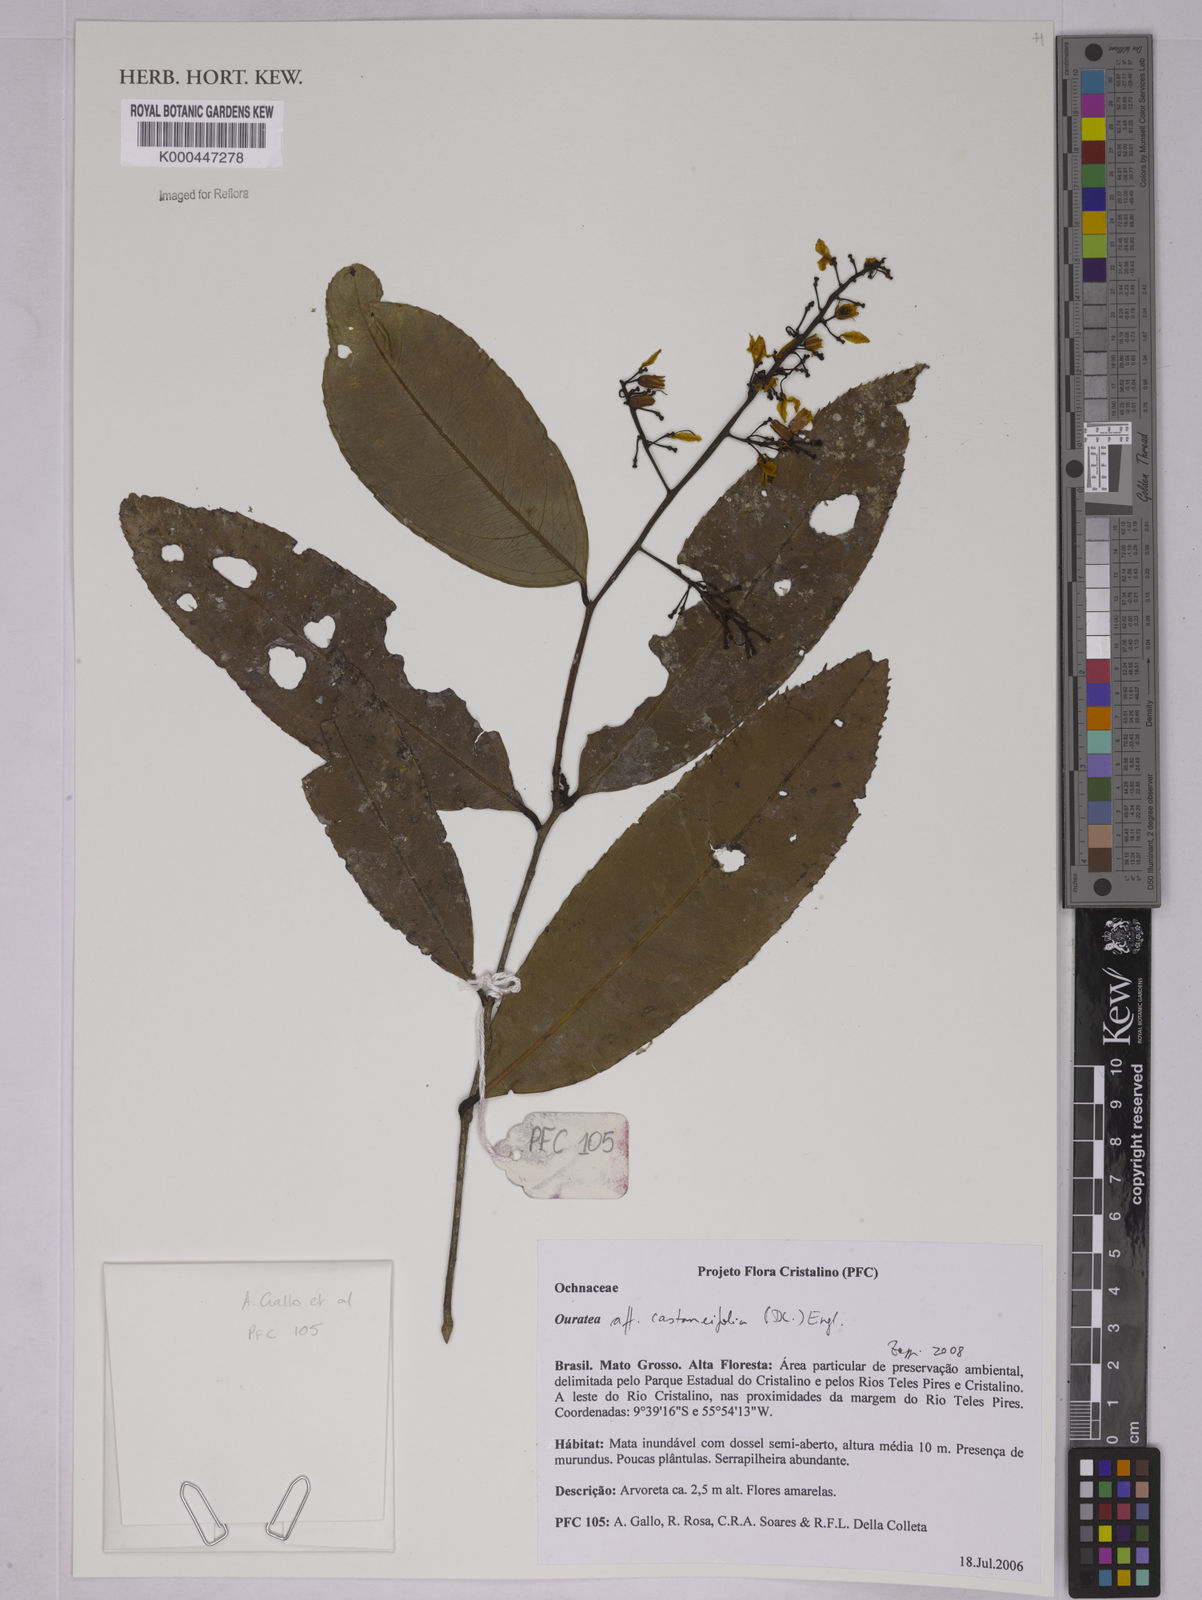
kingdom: Plantae
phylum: Tracheophyta
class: Magnoliopsida
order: Malpighiales
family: Ochnaceae
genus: Ouratea
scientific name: Ouratea castaneifolia
